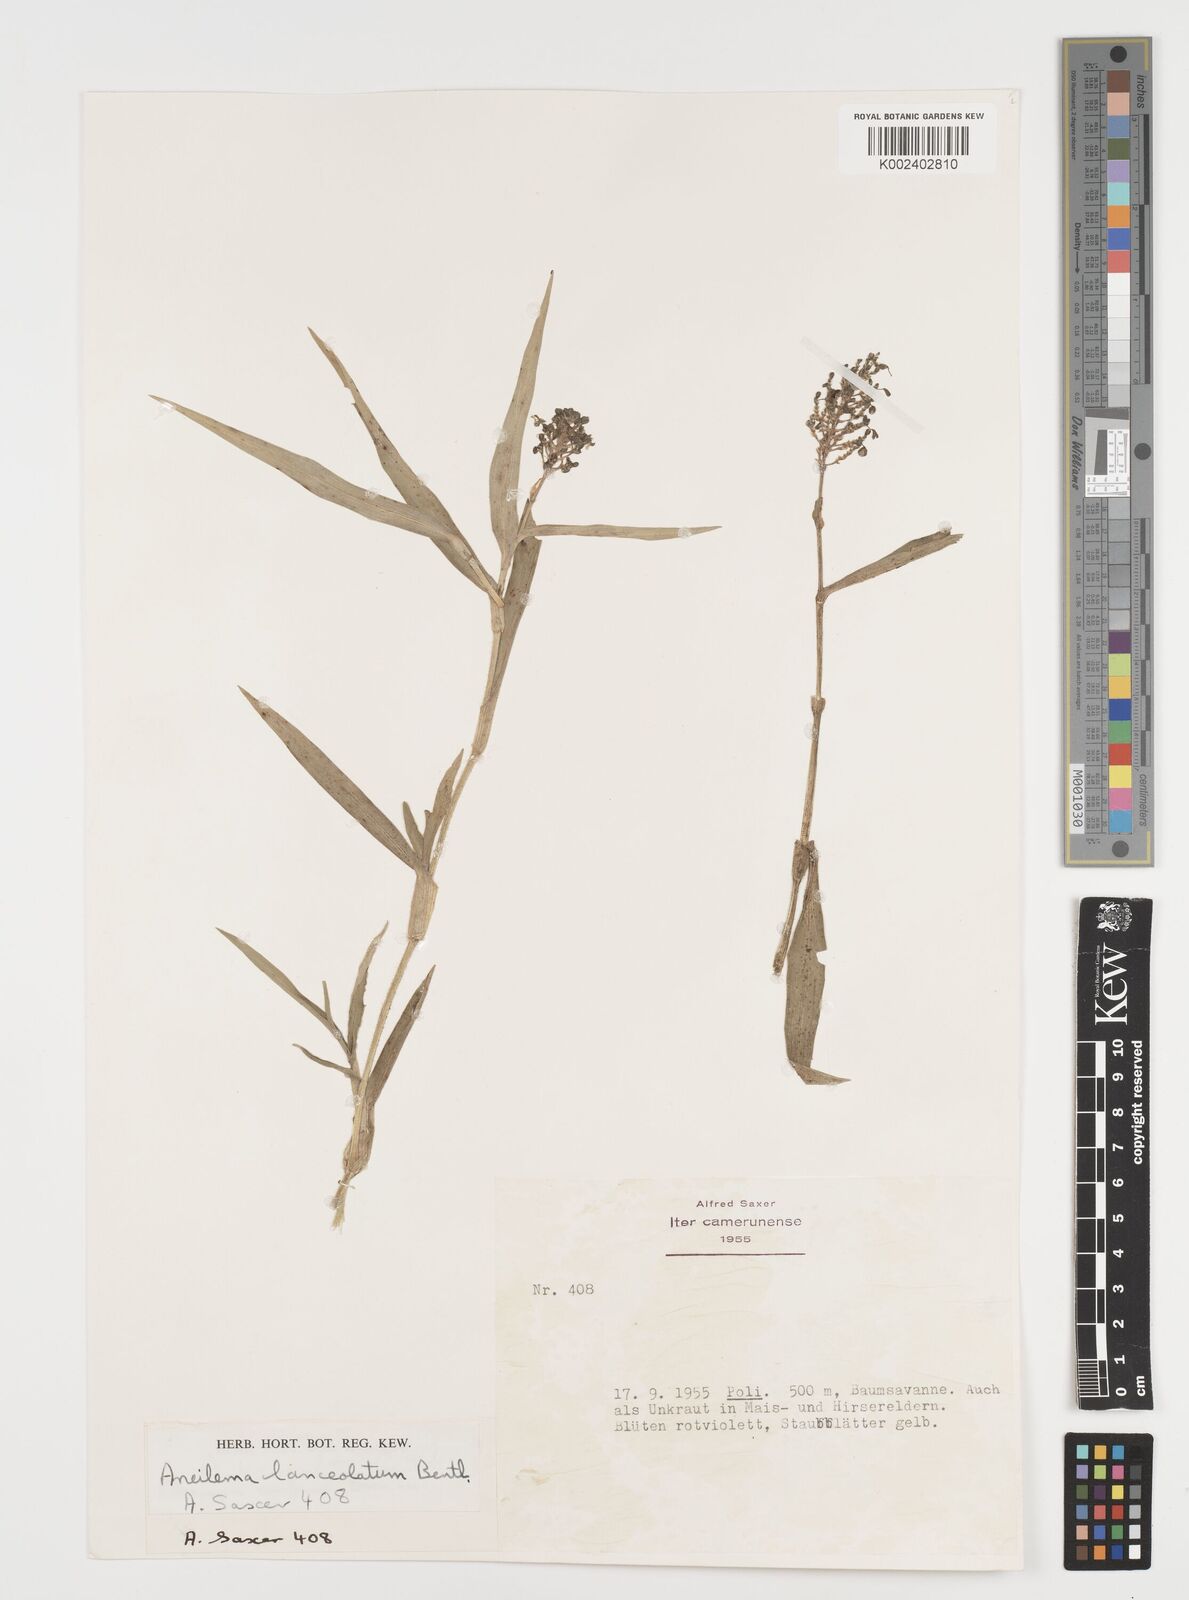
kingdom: Plantae
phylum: Tracheophyta
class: Liliopsida
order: Commelinales
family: Commelinaceae
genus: Aneilema
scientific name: Aneilema lanceolatum
